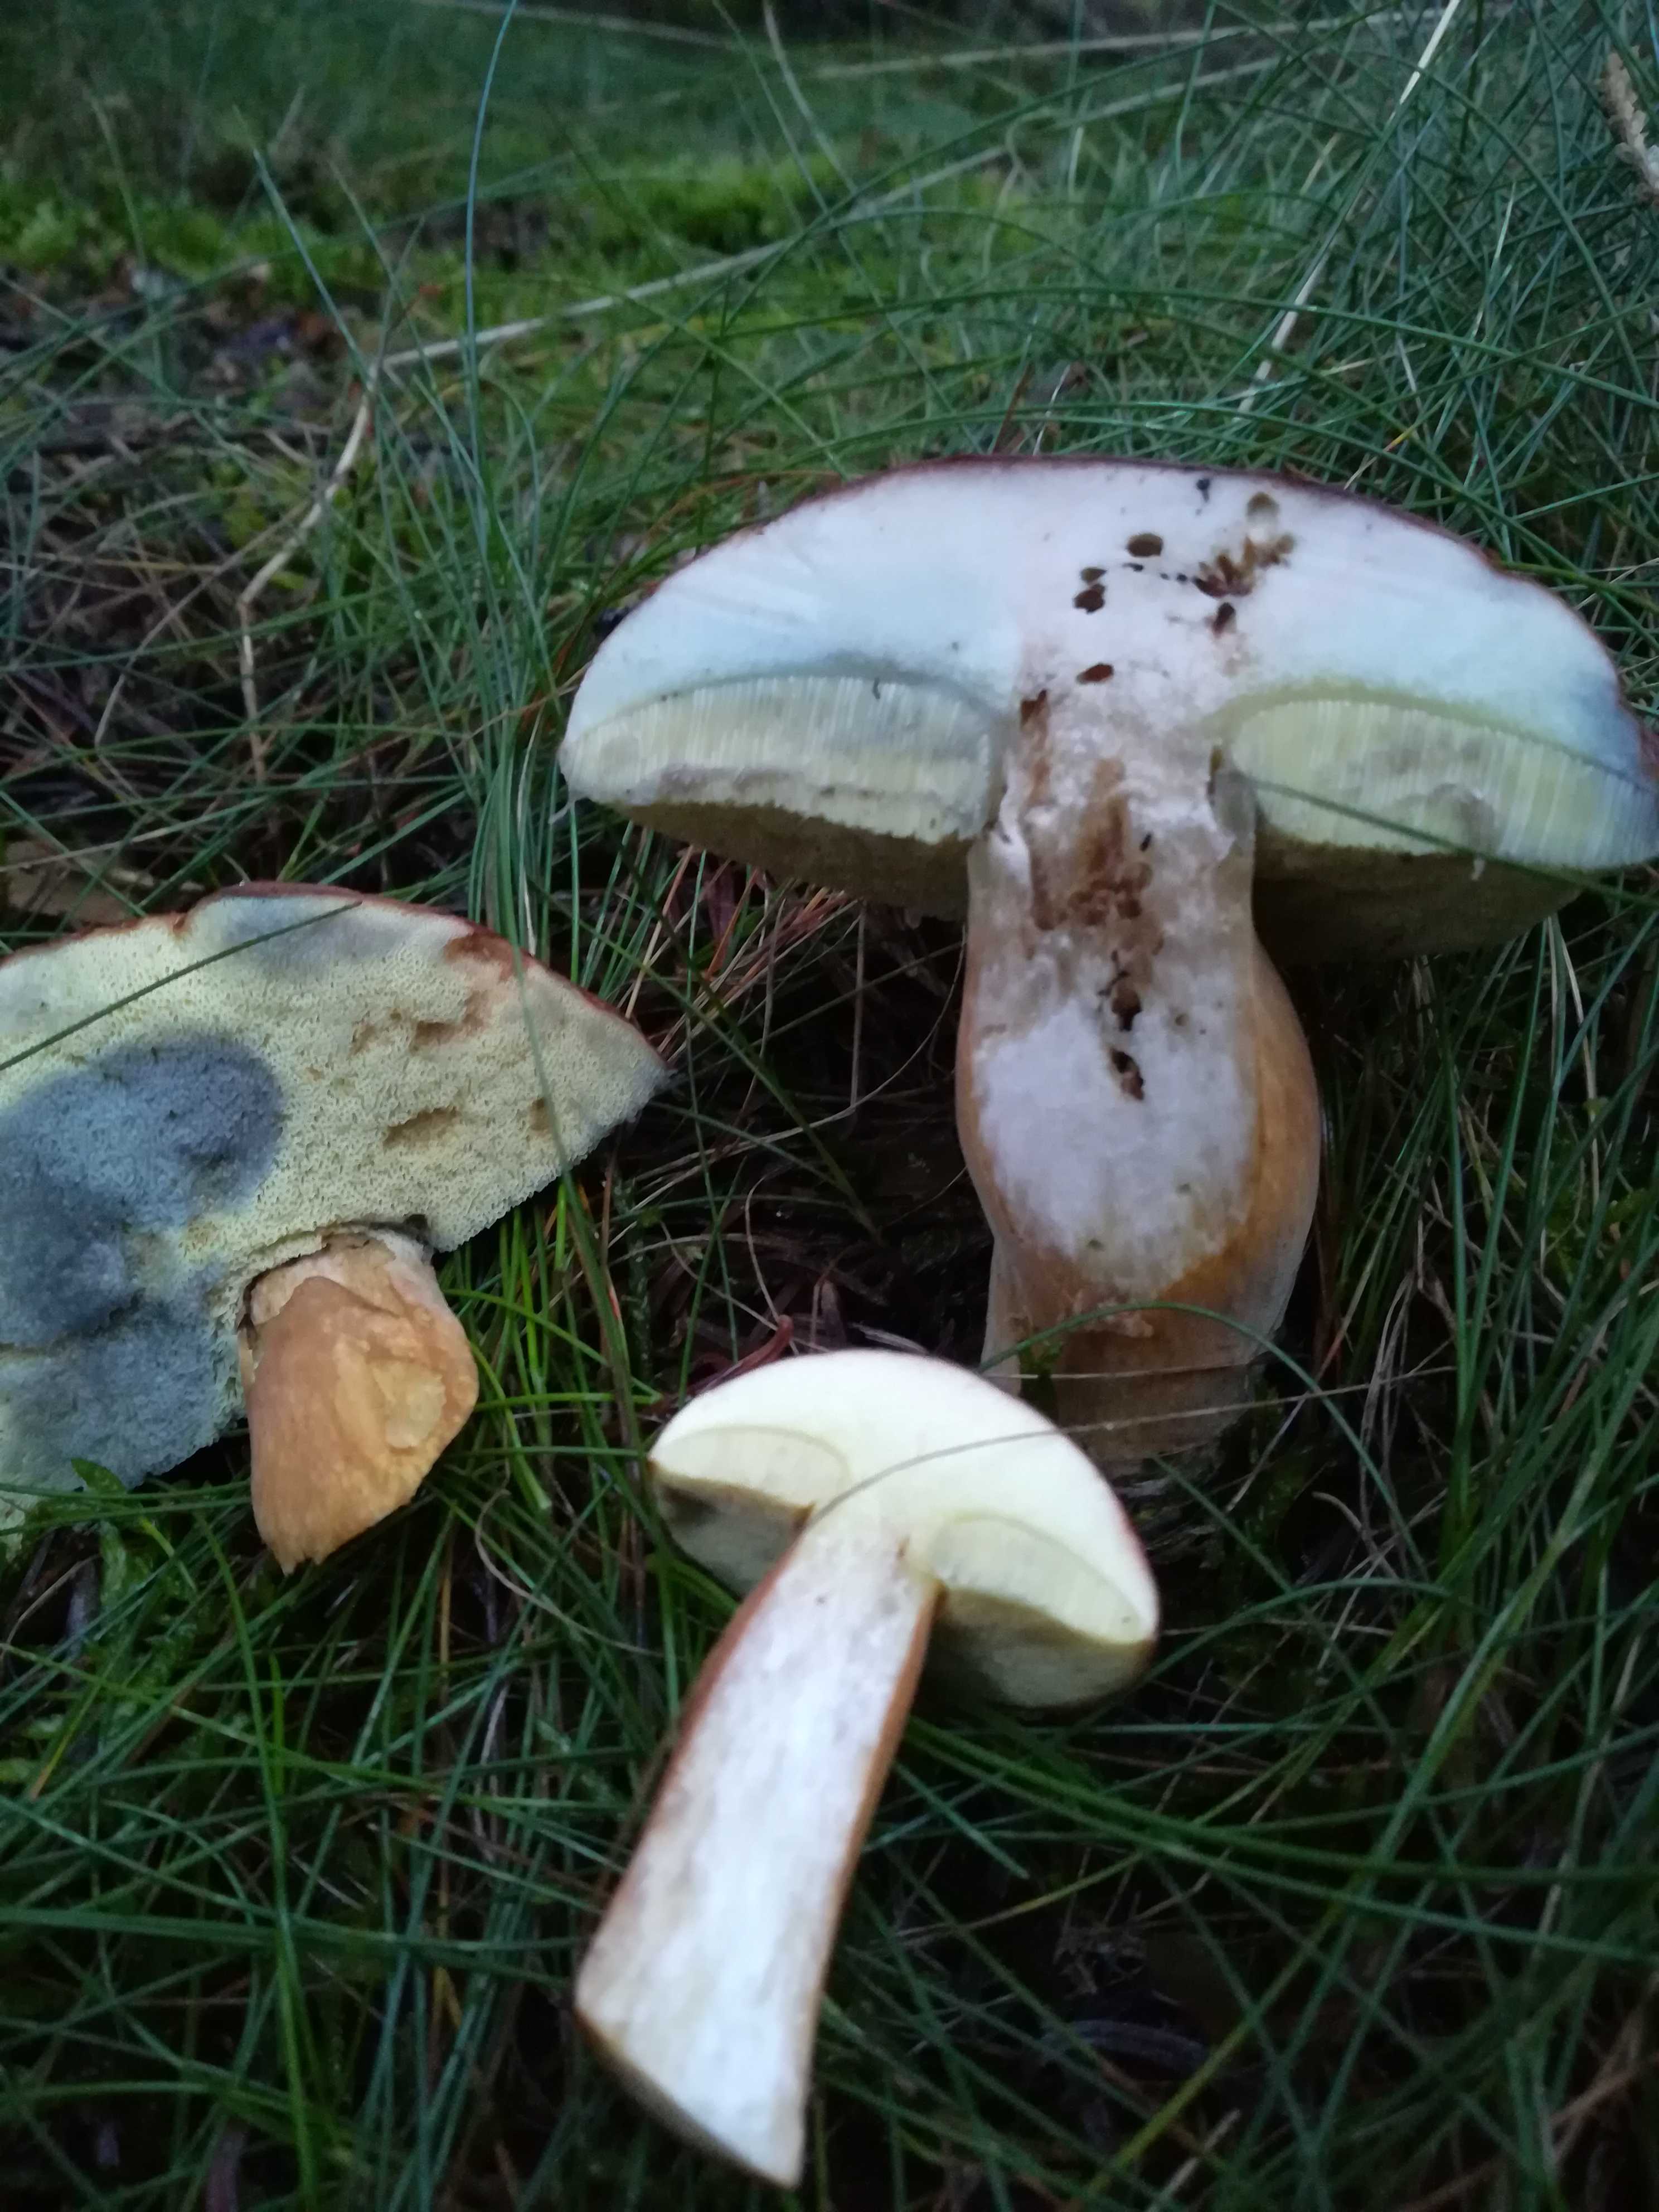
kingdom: Fungi
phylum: Basidiomycota
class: Agaricomycetes
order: Boletales
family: Boletaceae
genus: Imleria
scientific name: Imleria badia
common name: brunstokket rørhat
